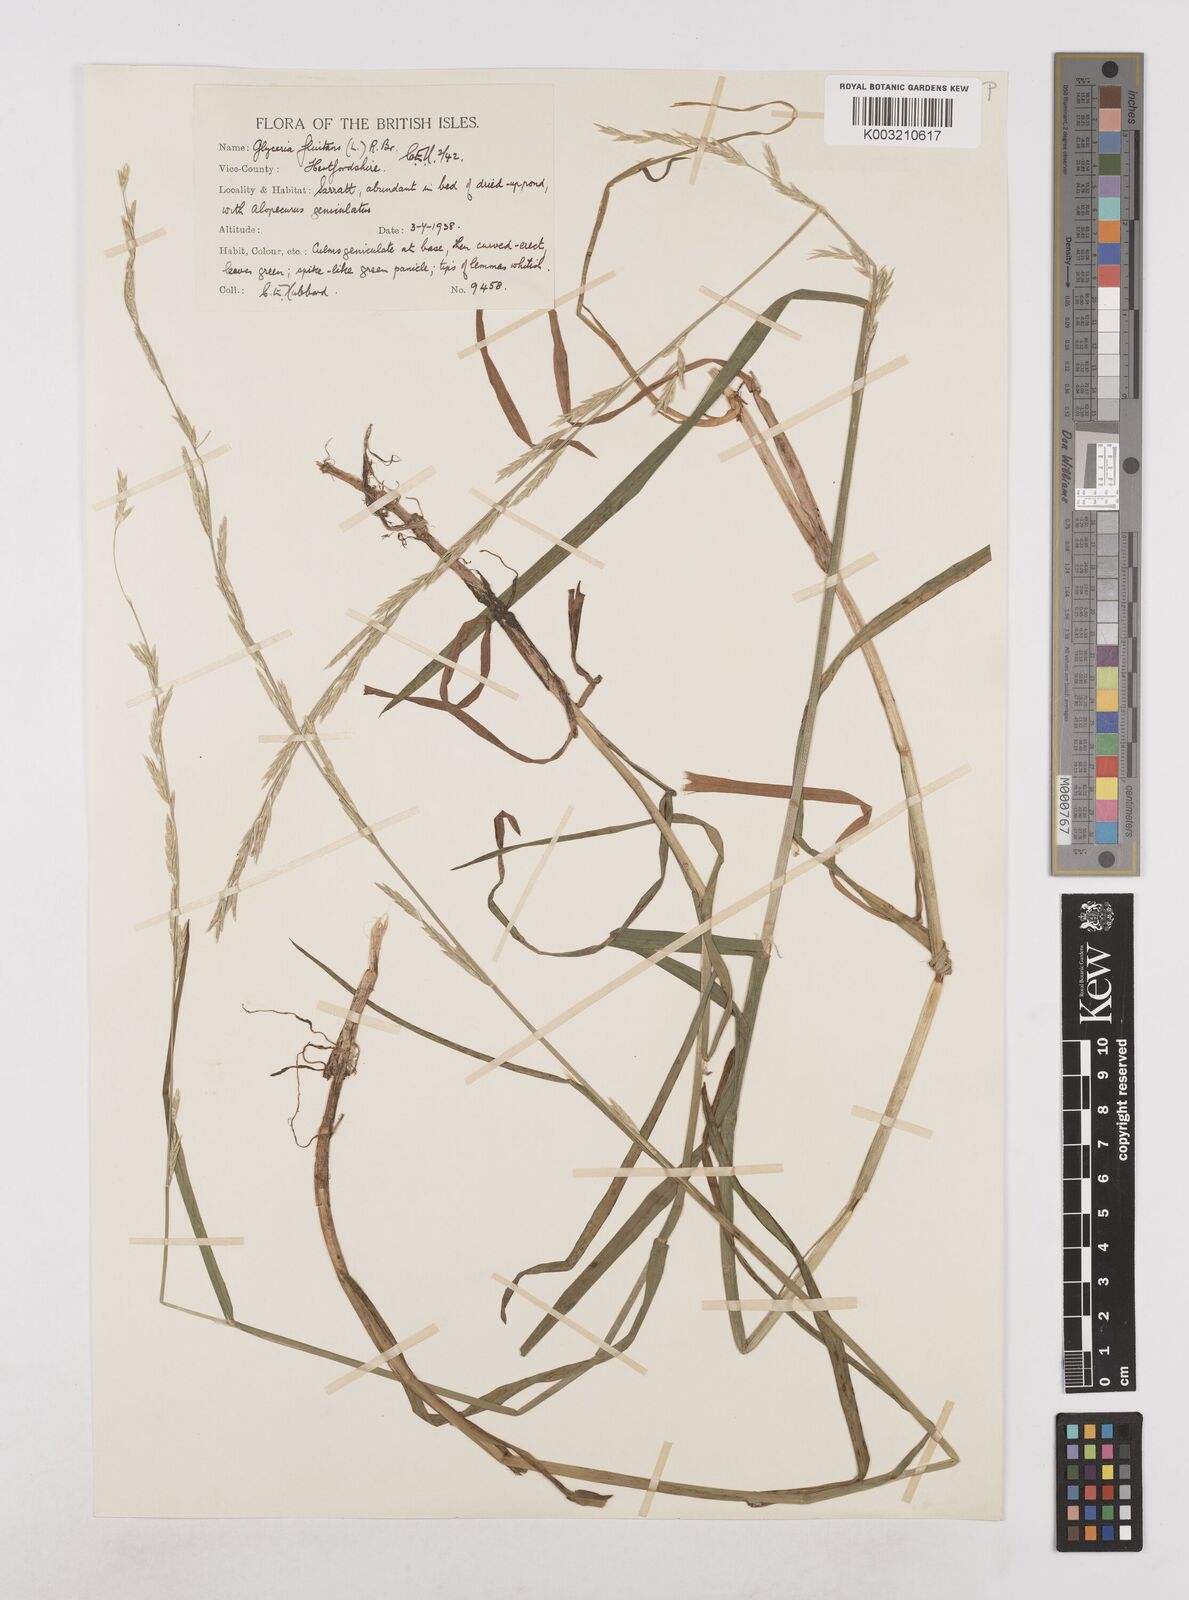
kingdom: Plantae
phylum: Tracheophyta
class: Liliopsida
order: Poales
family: Poaceae
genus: Glyceria
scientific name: Glyceria fluitans
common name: Floating sweet-grass
